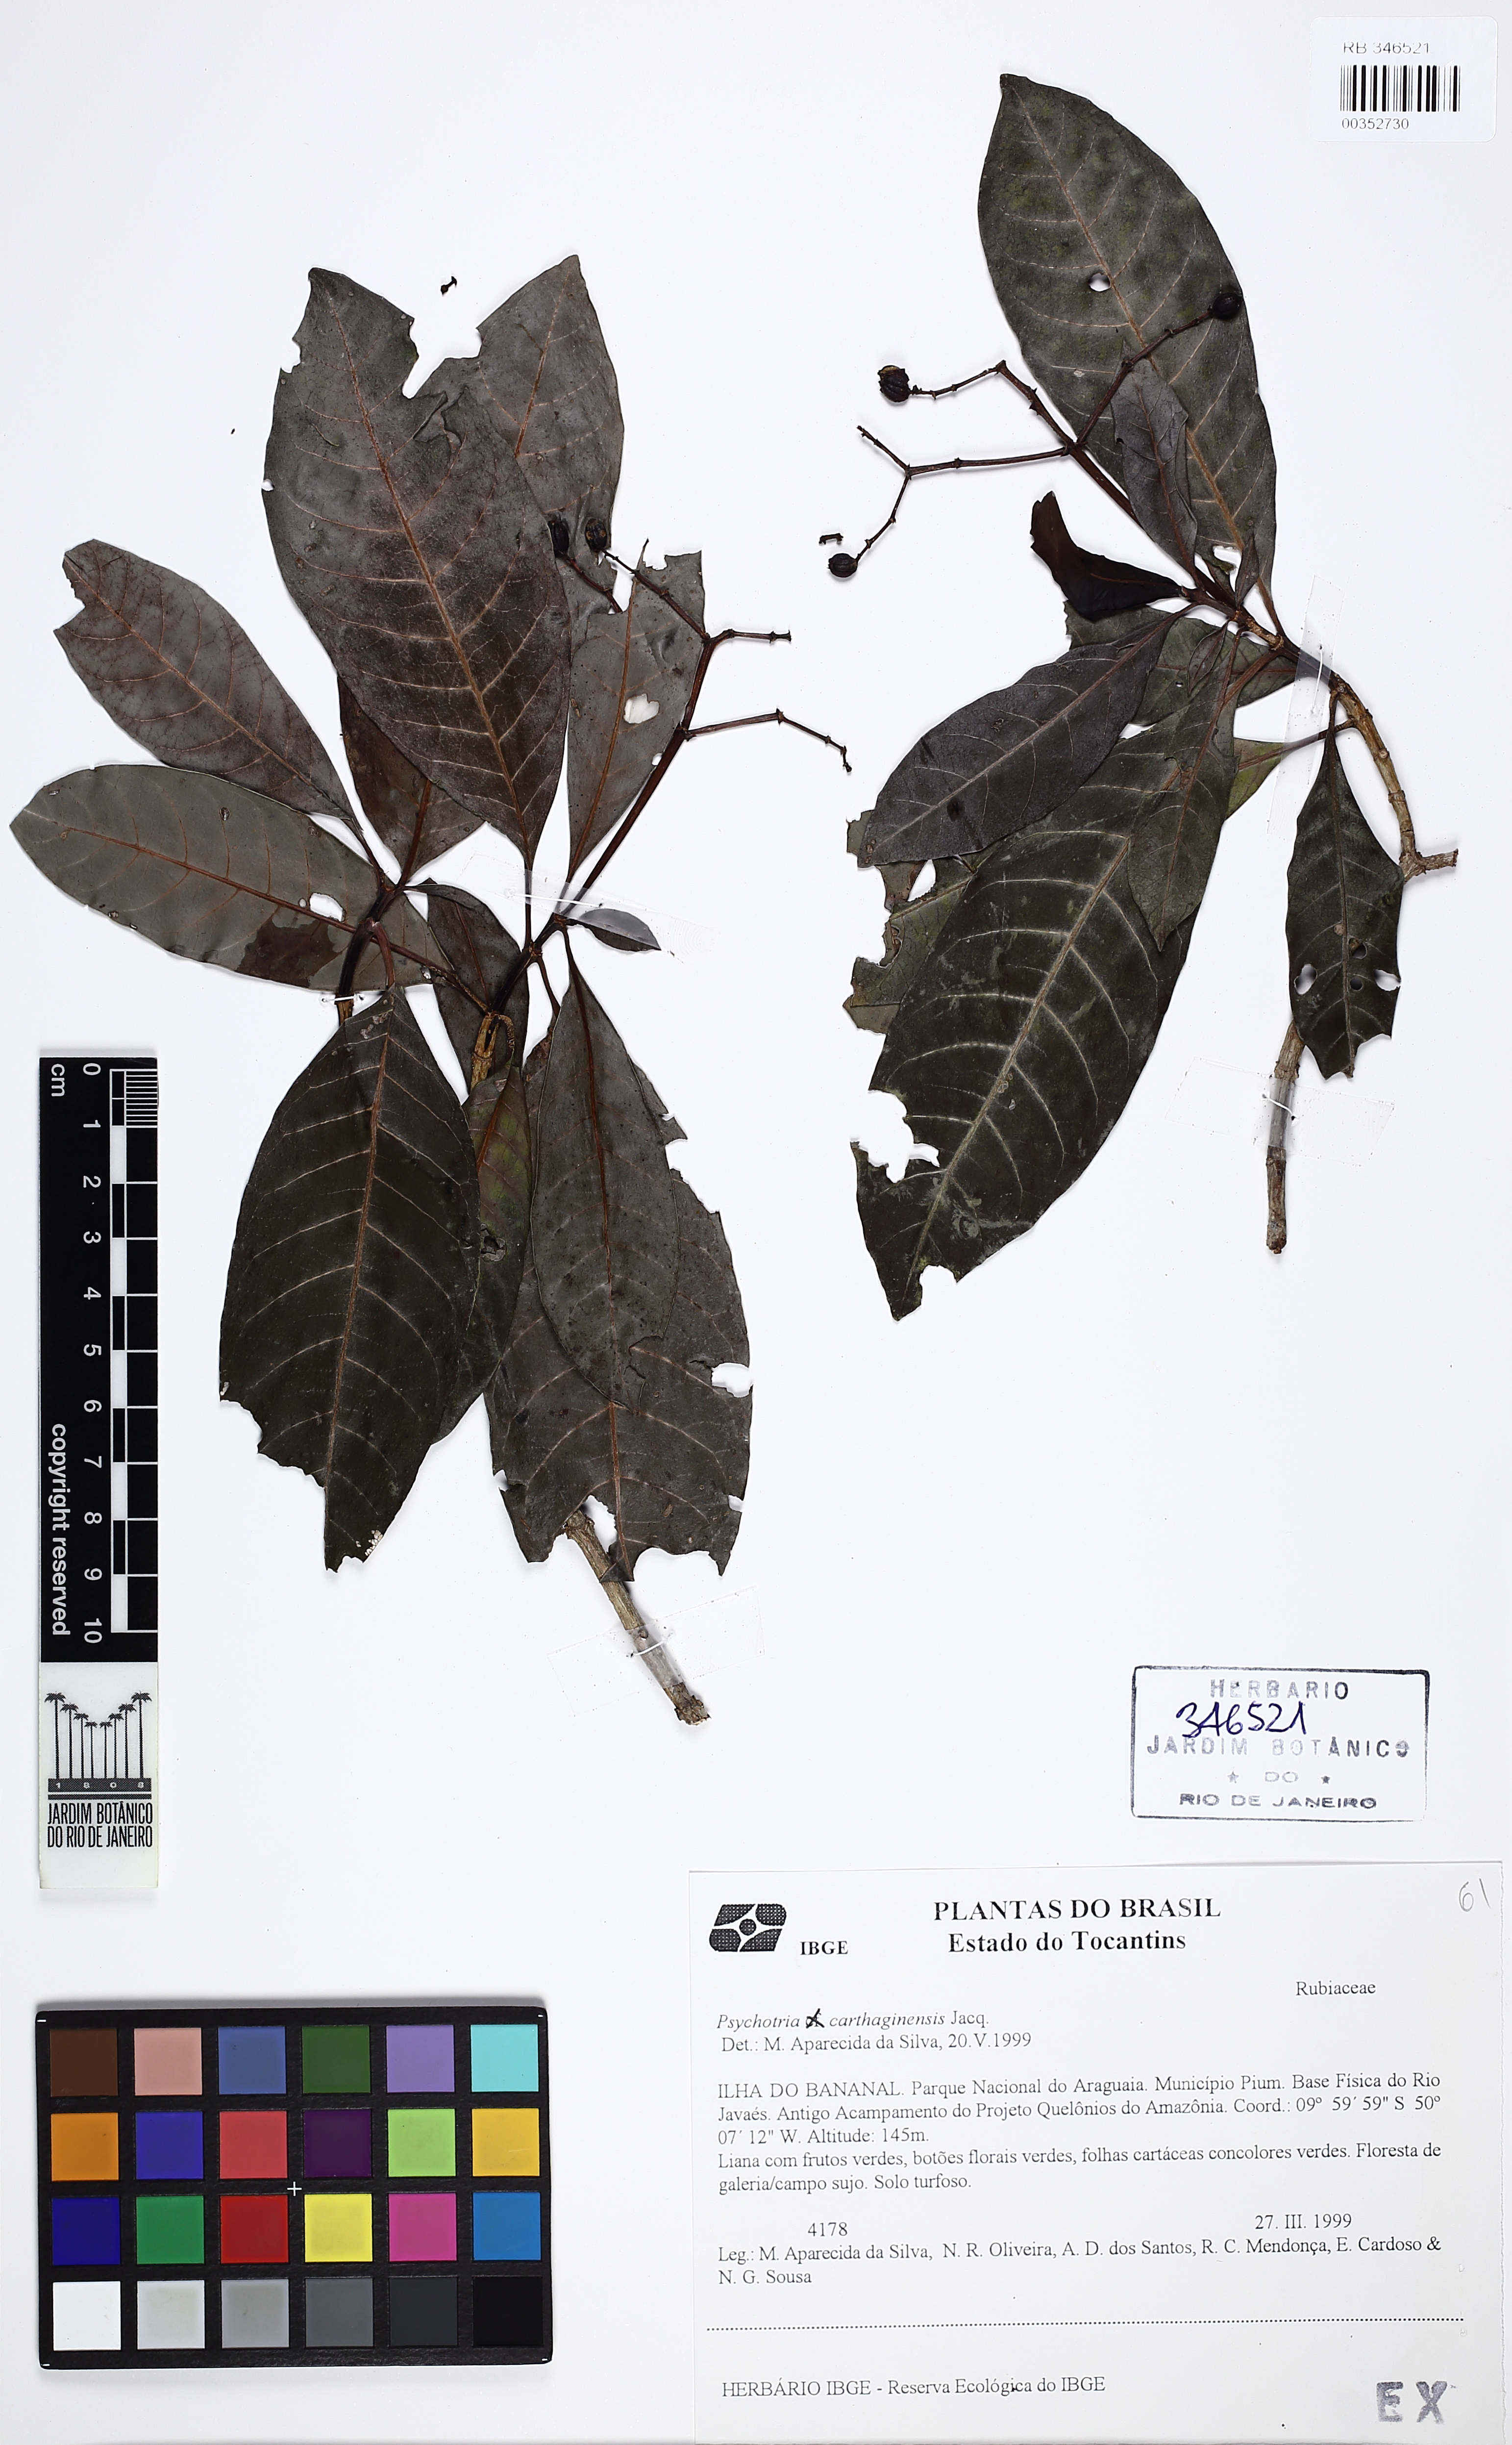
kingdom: Plantae
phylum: Tracheophyta
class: Magnoliopsida
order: Gentianales
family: Rubiaceae
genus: Psychotria
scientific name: Psychotria carthagenensis
